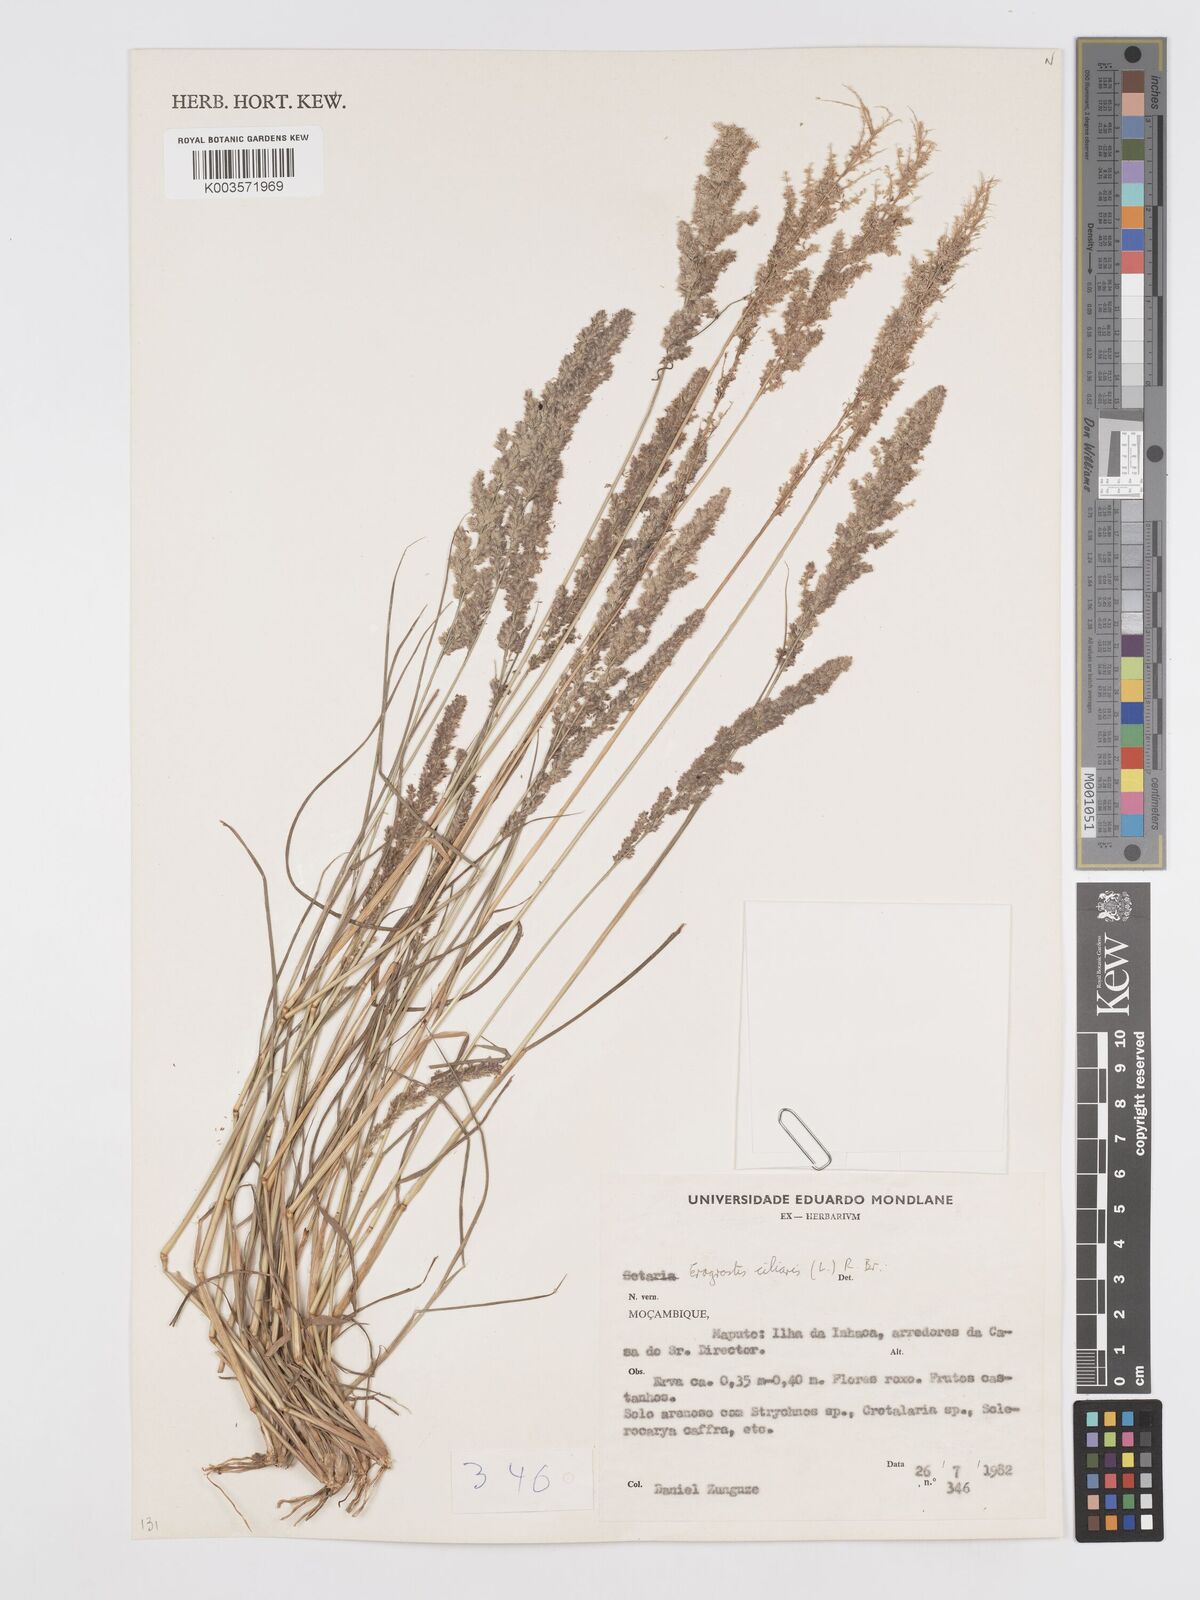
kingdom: Plantae
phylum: Tracheophyta
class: Liliopsida
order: Poales
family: Poaceae
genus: Eragrostis
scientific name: Eragrostis ciliaris
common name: Gophertail lovegrass
